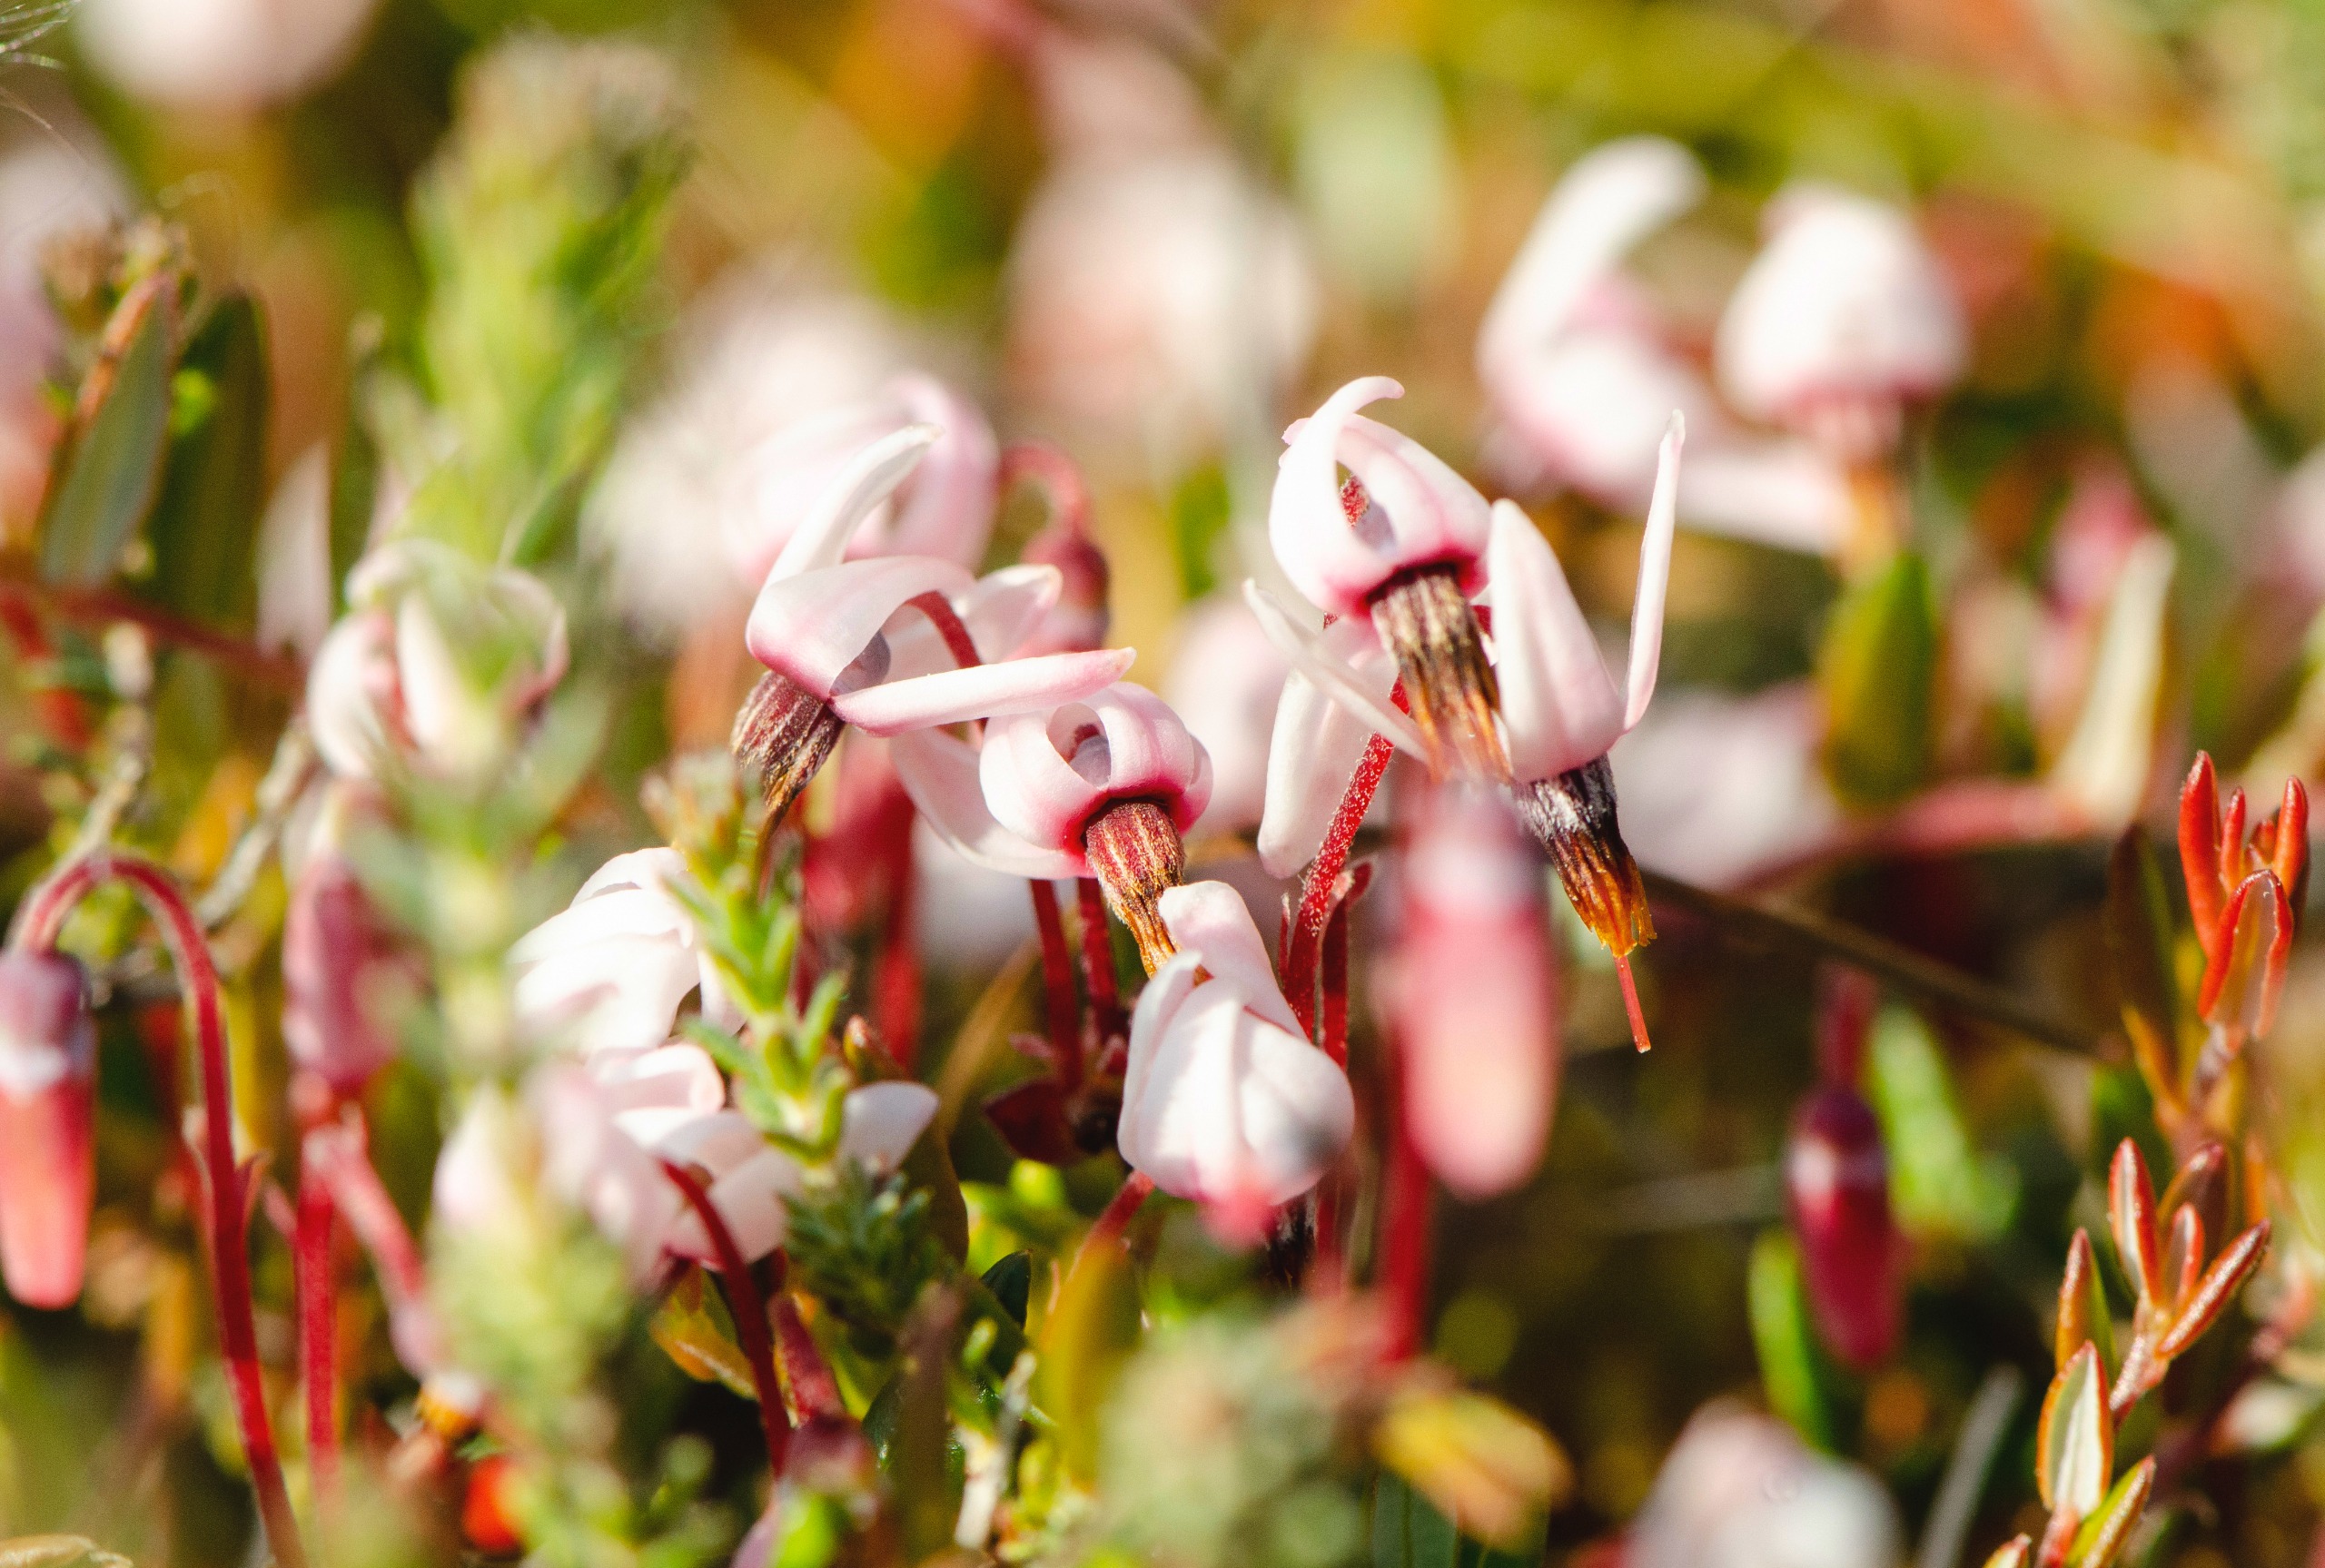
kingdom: Plantae
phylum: Tracheophyta
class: Magnoliopsida
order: Ericales
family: Ericaceae
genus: Vaccinium
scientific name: Vaccinium oxycoccos
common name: Tranebær
